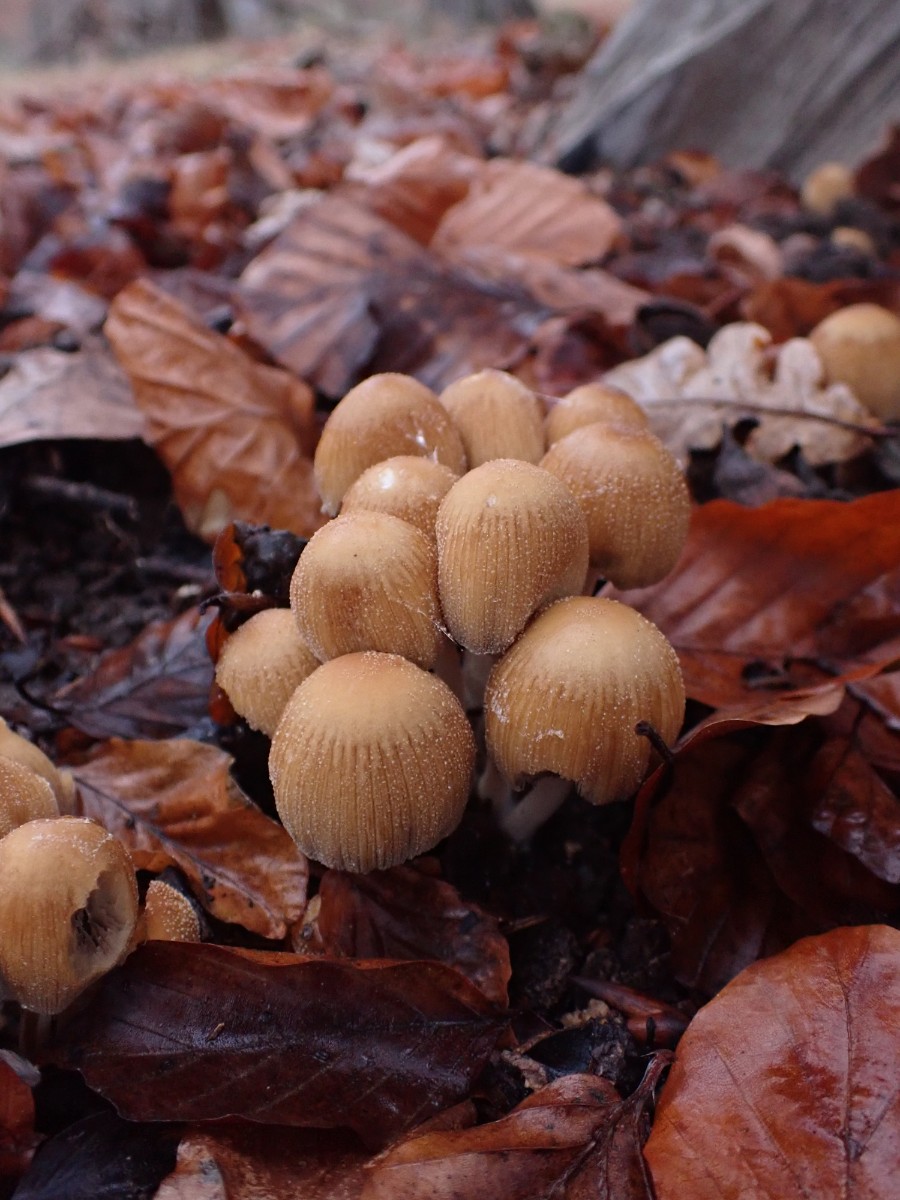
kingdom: Fungi
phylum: Basidiomycota
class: Agaricomycetes
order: Agaricales
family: Psathyrellaceae
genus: Coprinellus
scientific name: Coprinellus micaceus
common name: glimmer-blækhat
